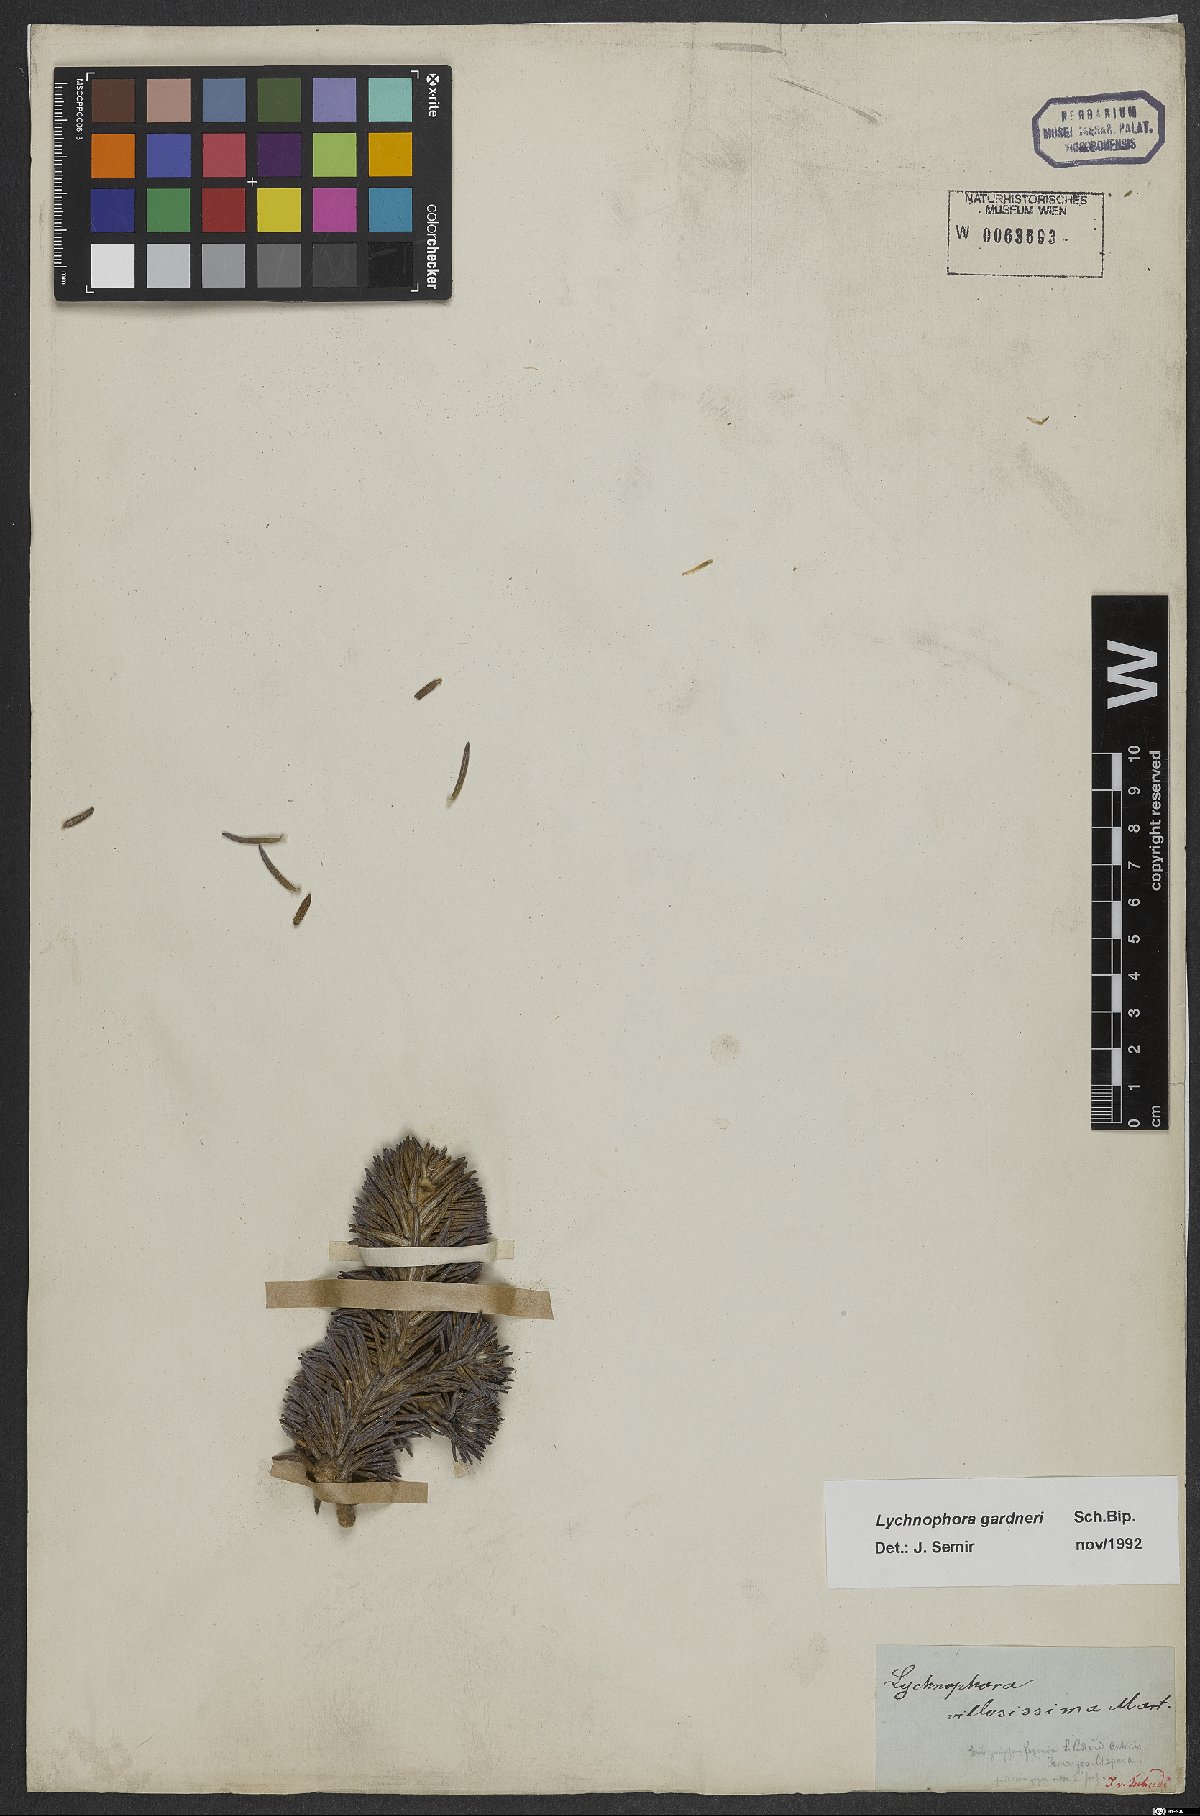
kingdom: Plantae
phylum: Tracheophyta
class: Magnoliopsida
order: Asterales
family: Asteraceae
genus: Lychnophora
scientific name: Lychnophora ericoides
